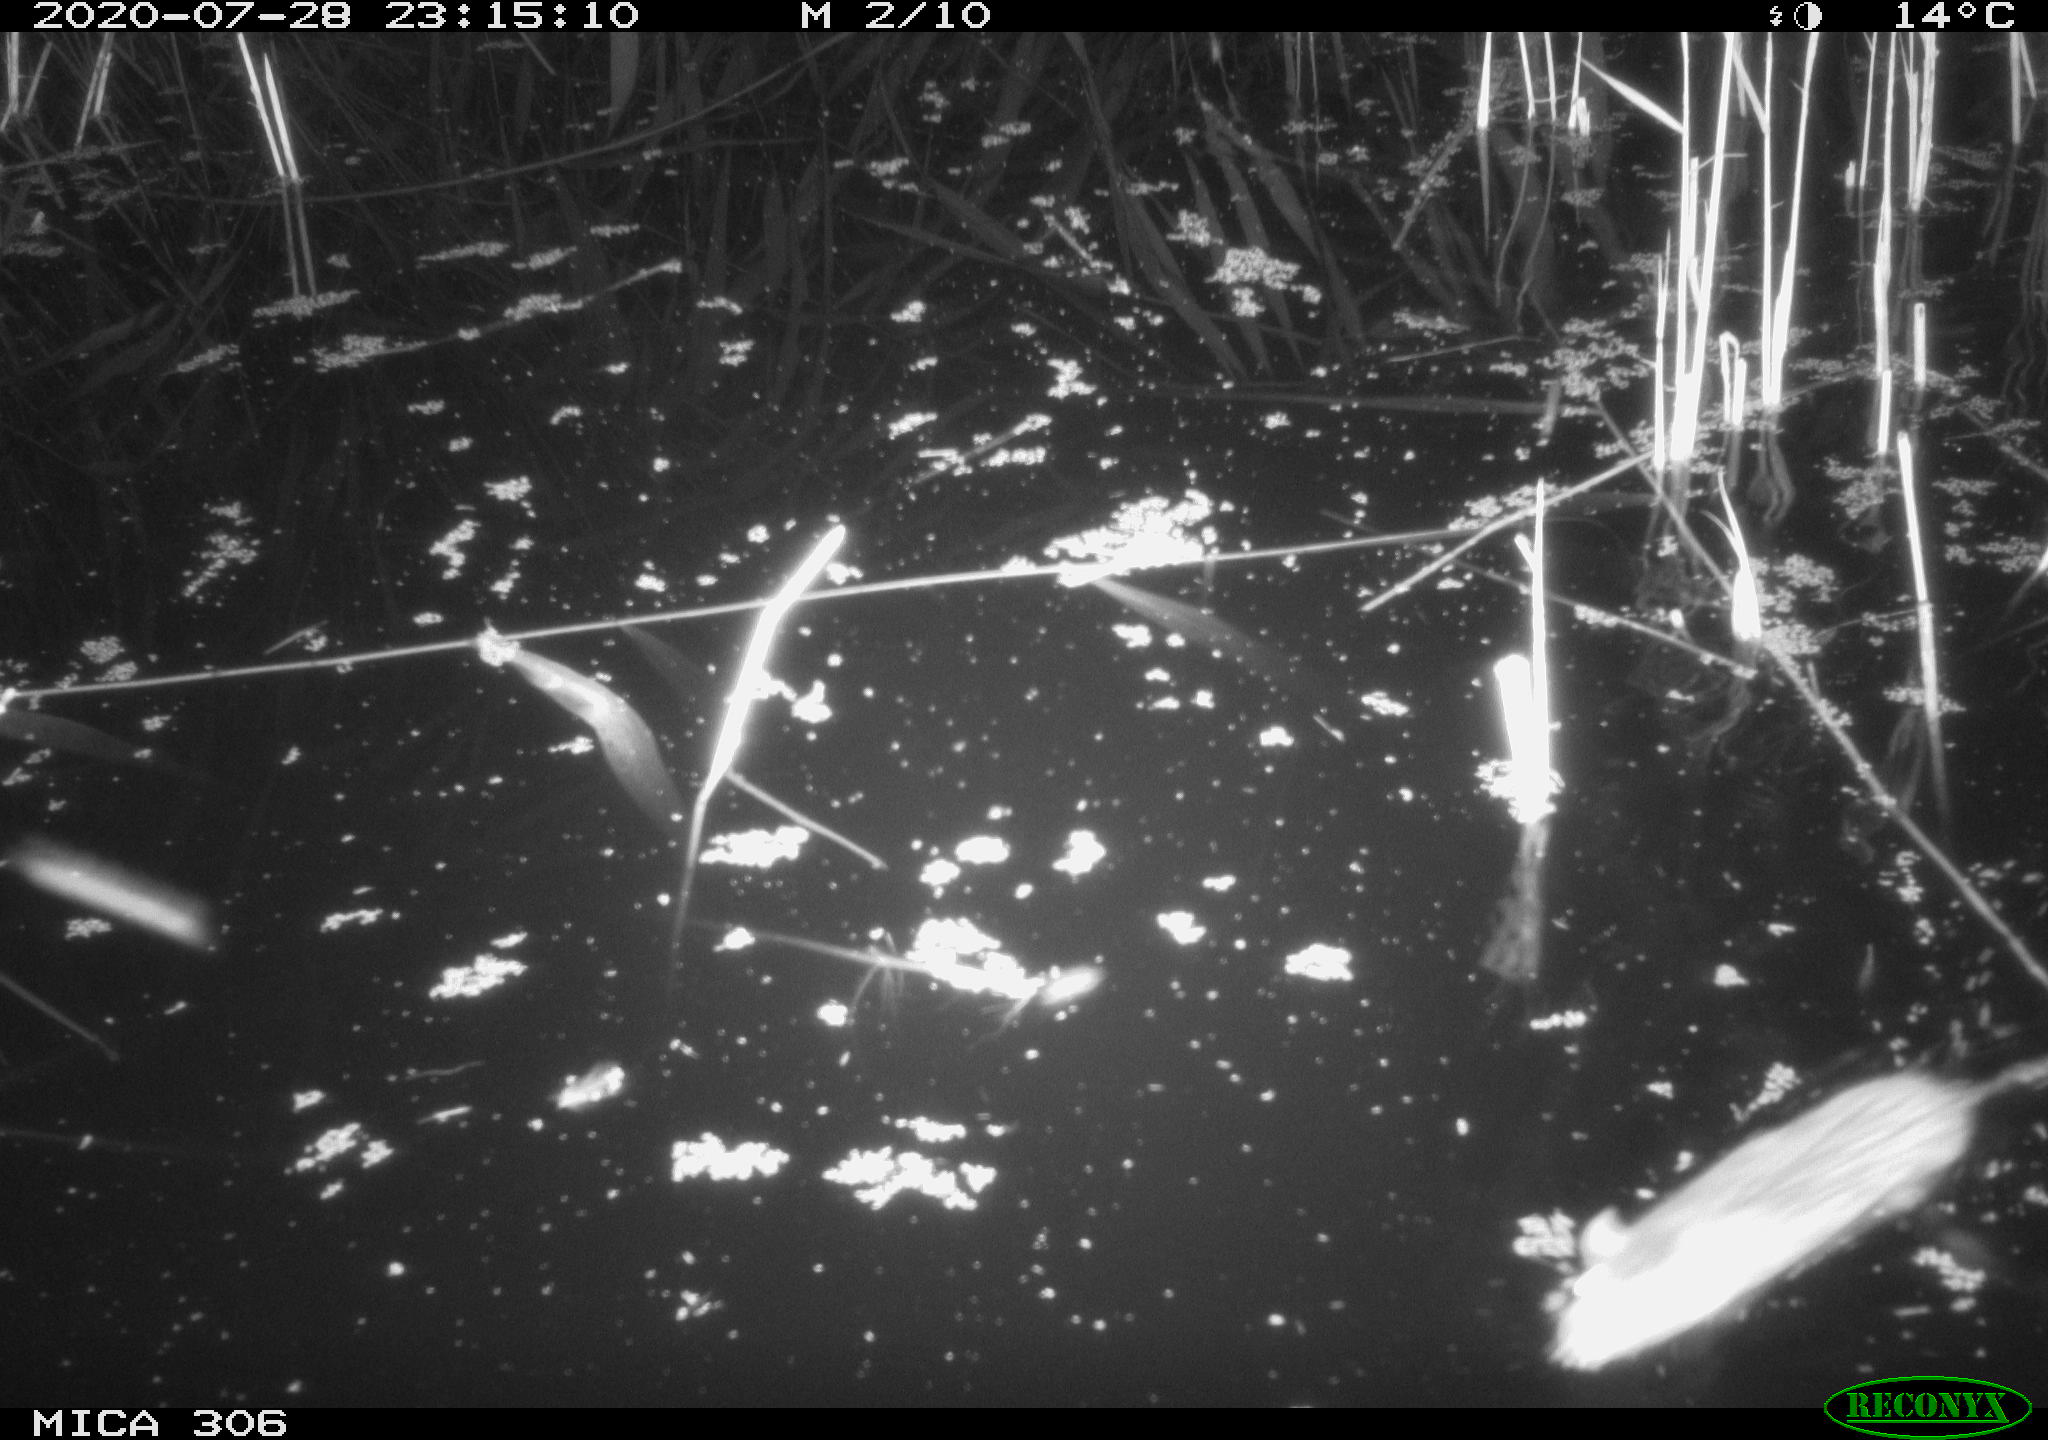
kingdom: Animalia
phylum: Chordata
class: Mammalia
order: Rodentia
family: Muridae
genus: Rattus
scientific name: Rattus norvegicus
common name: Brown rat
